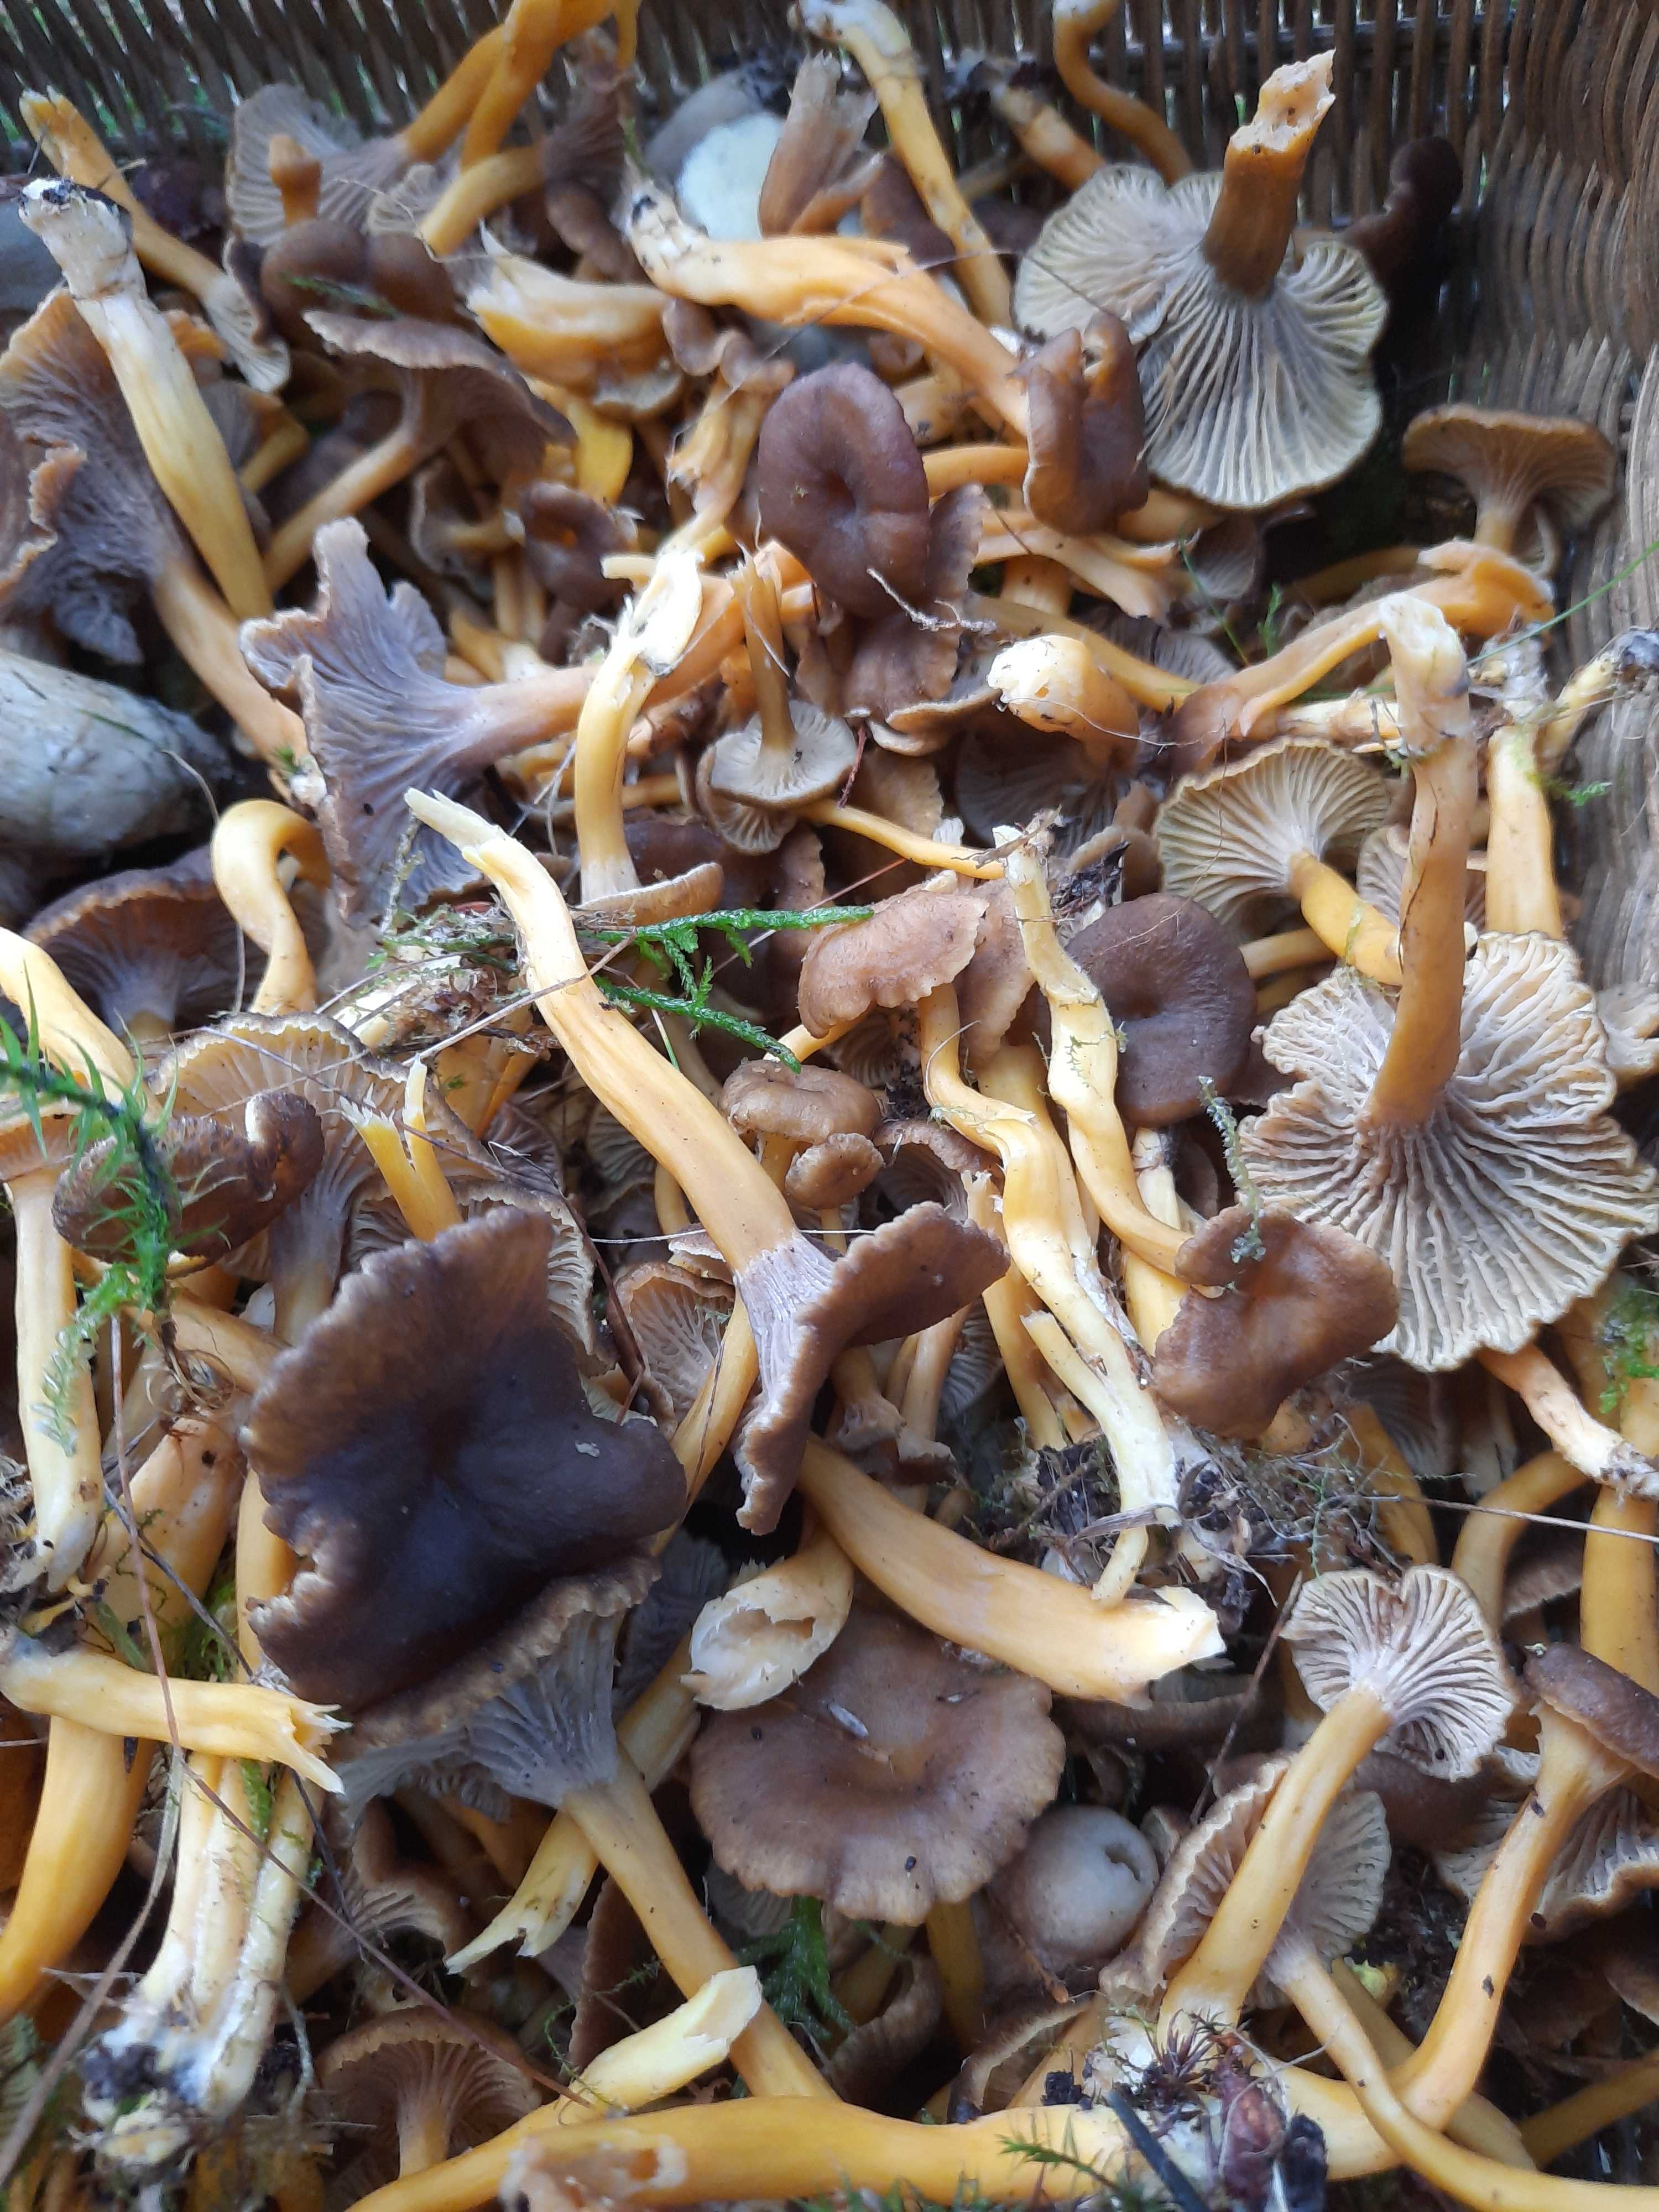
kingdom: Fungi
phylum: Basidiomycota
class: Agaricomycetes
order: Cantharellales
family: Hydnaceae
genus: Craterellus
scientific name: Craterellus tubaeformis
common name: tragt-kantarel
